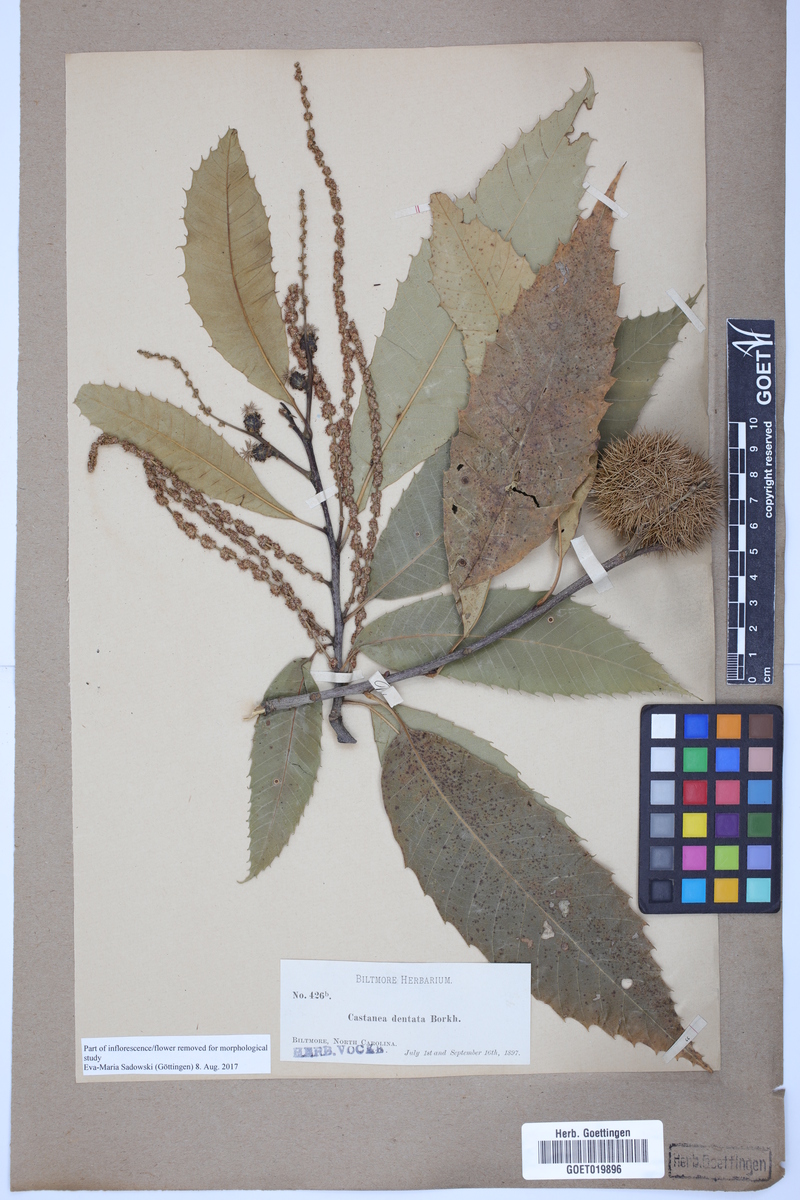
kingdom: Plantae
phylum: Tracheophyta
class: Magnoliopsida
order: Fagales
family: Fagaceae
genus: Castanea
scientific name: Castanea dentata
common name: American chestnut
